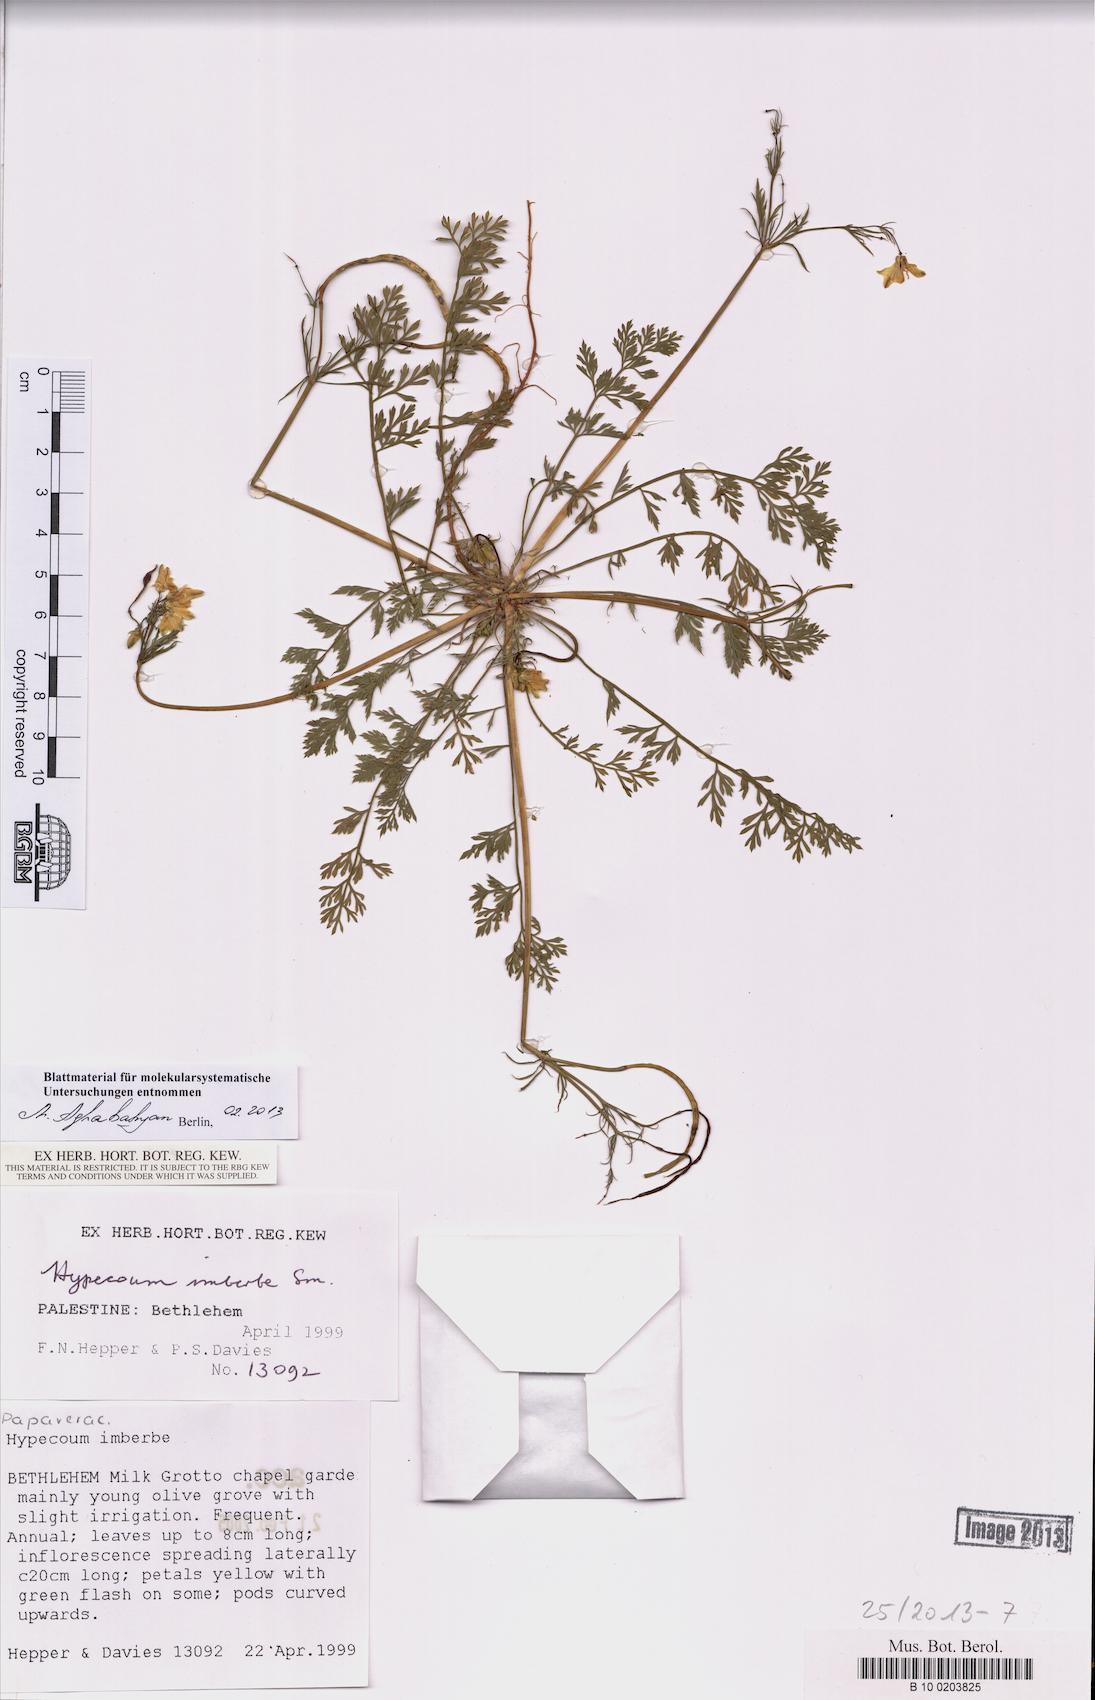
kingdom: Plantae
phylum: Tracheophyta
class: Magnoliopsida
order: Ranunculales
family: Papaveraceae
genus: Hypecoum
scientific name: Hypecoum imberbe
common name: Sicklefruit hypecoum
